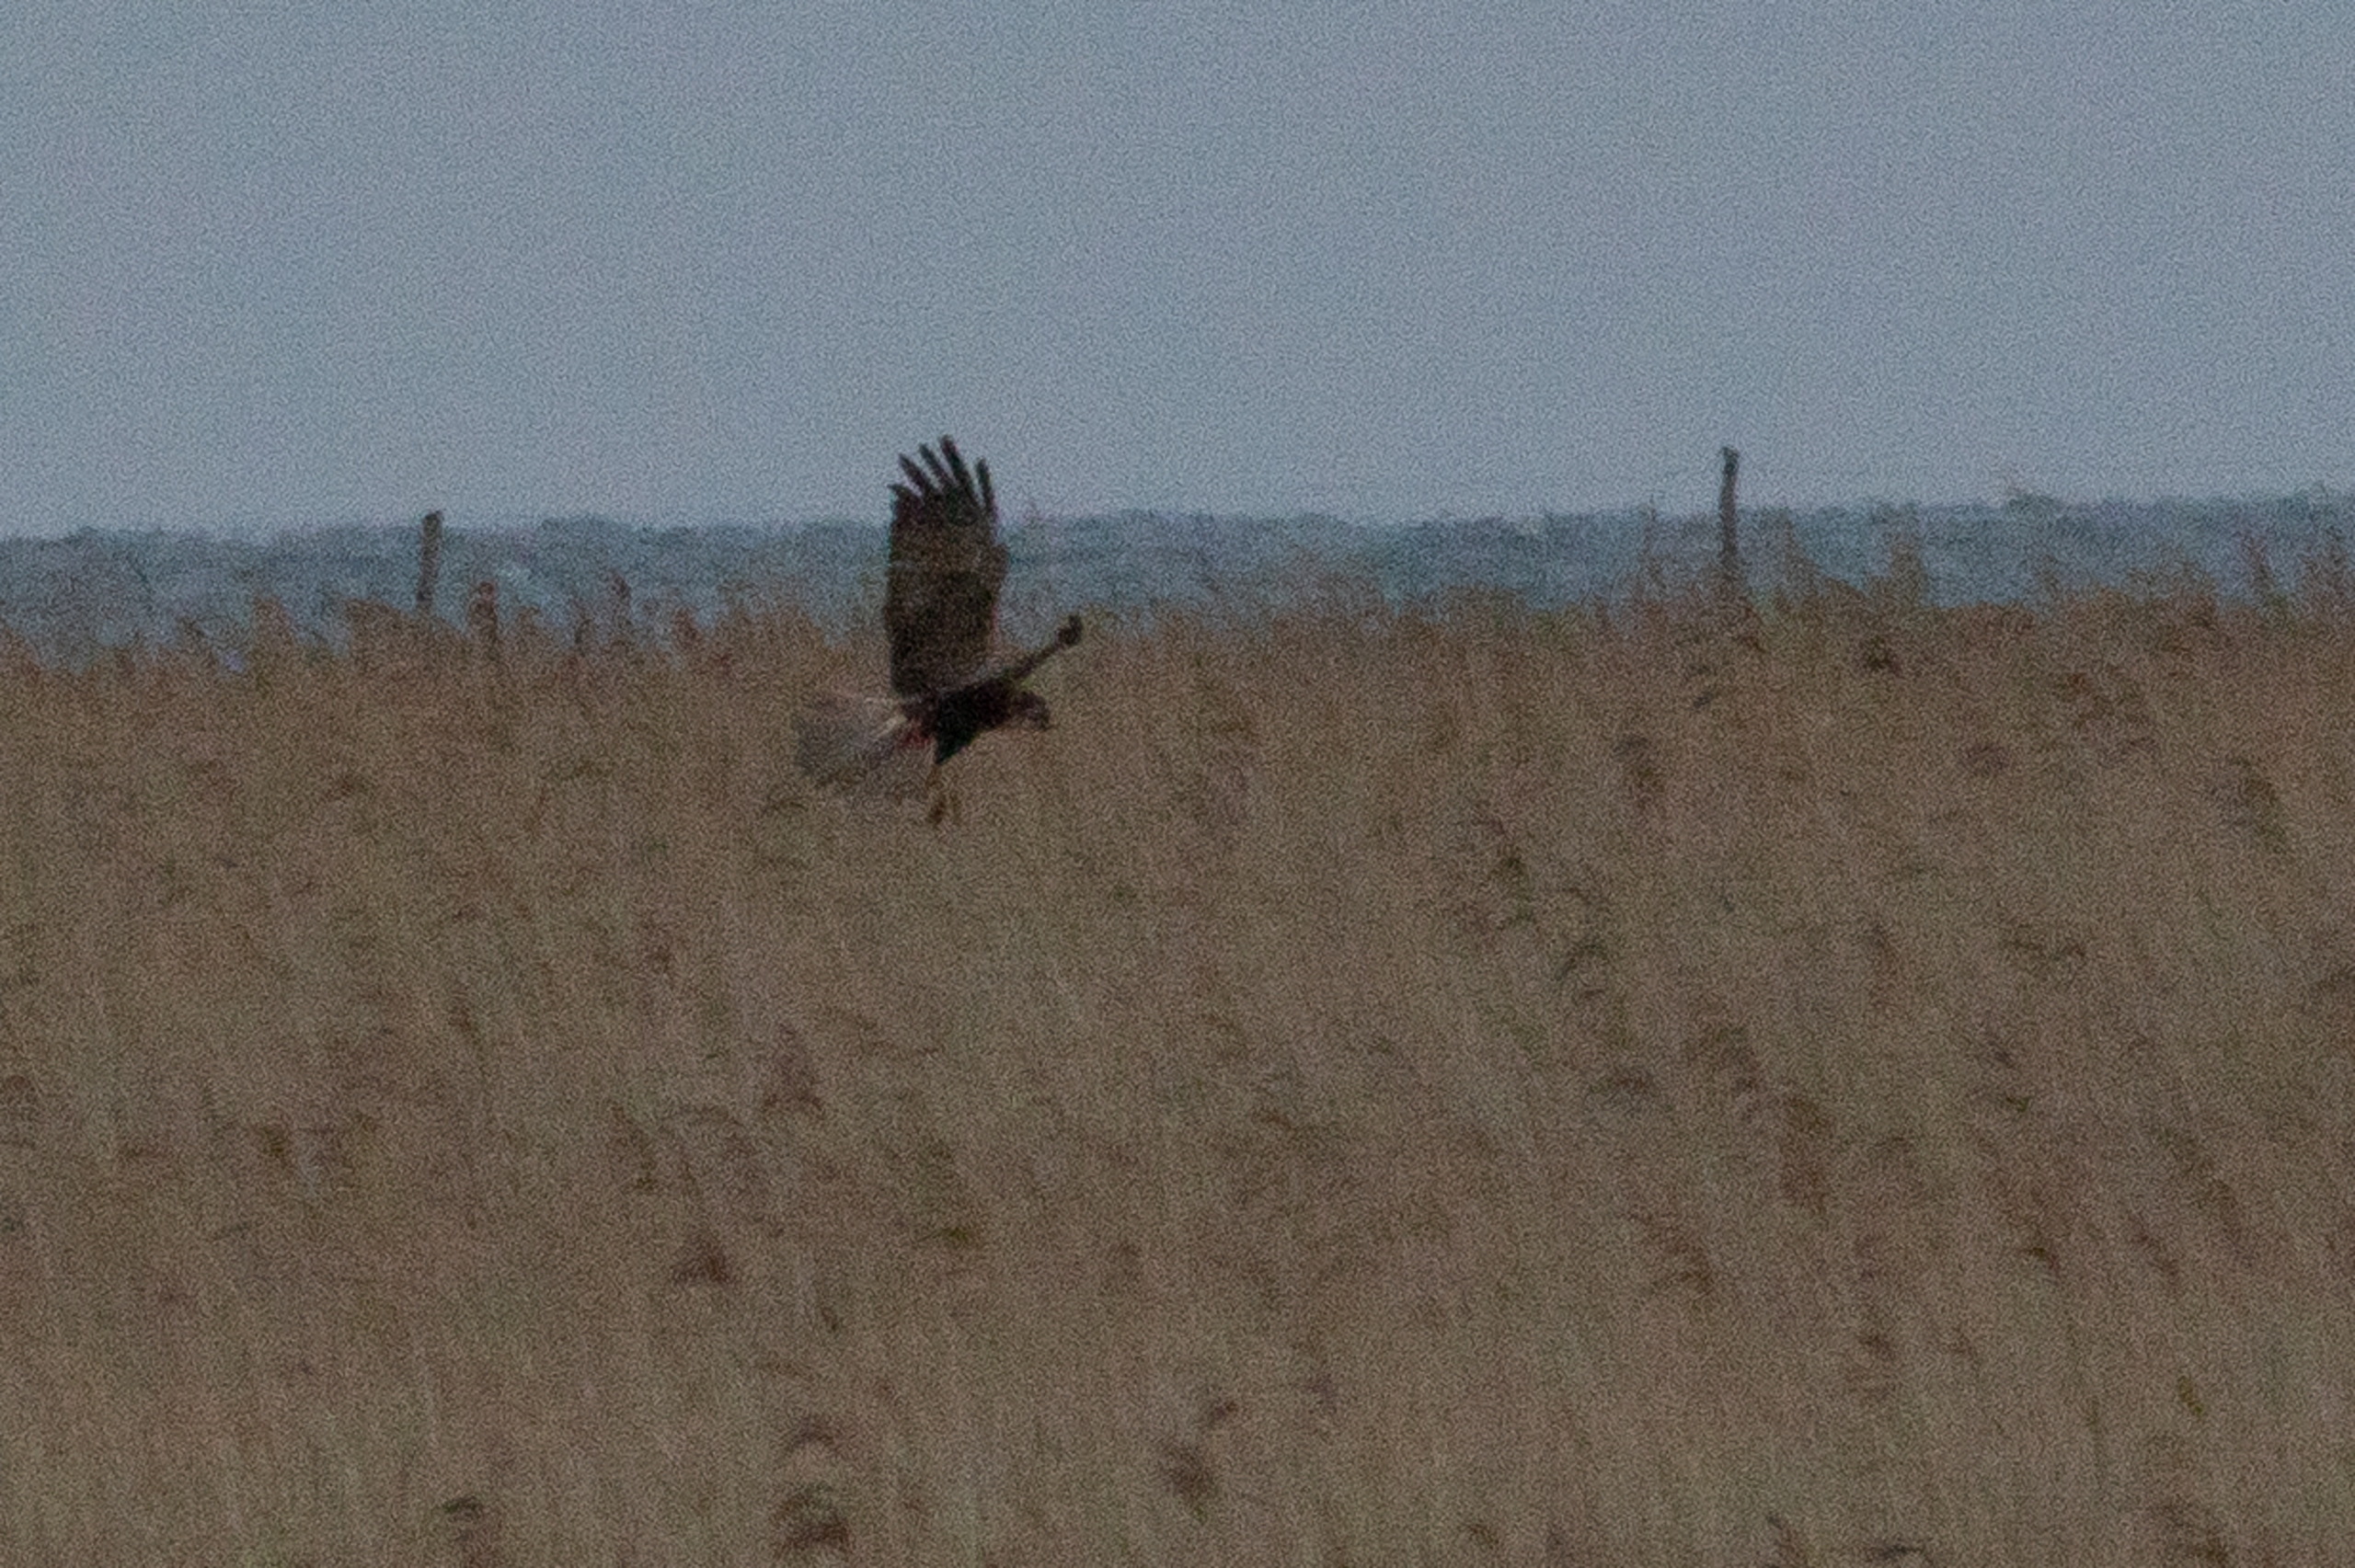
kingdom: Animalia
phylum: Chordata
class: Aves
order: Accipitriformes
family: Accipitridae
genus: Circus
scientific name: Circus aeruginosus
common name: Rørhøg
